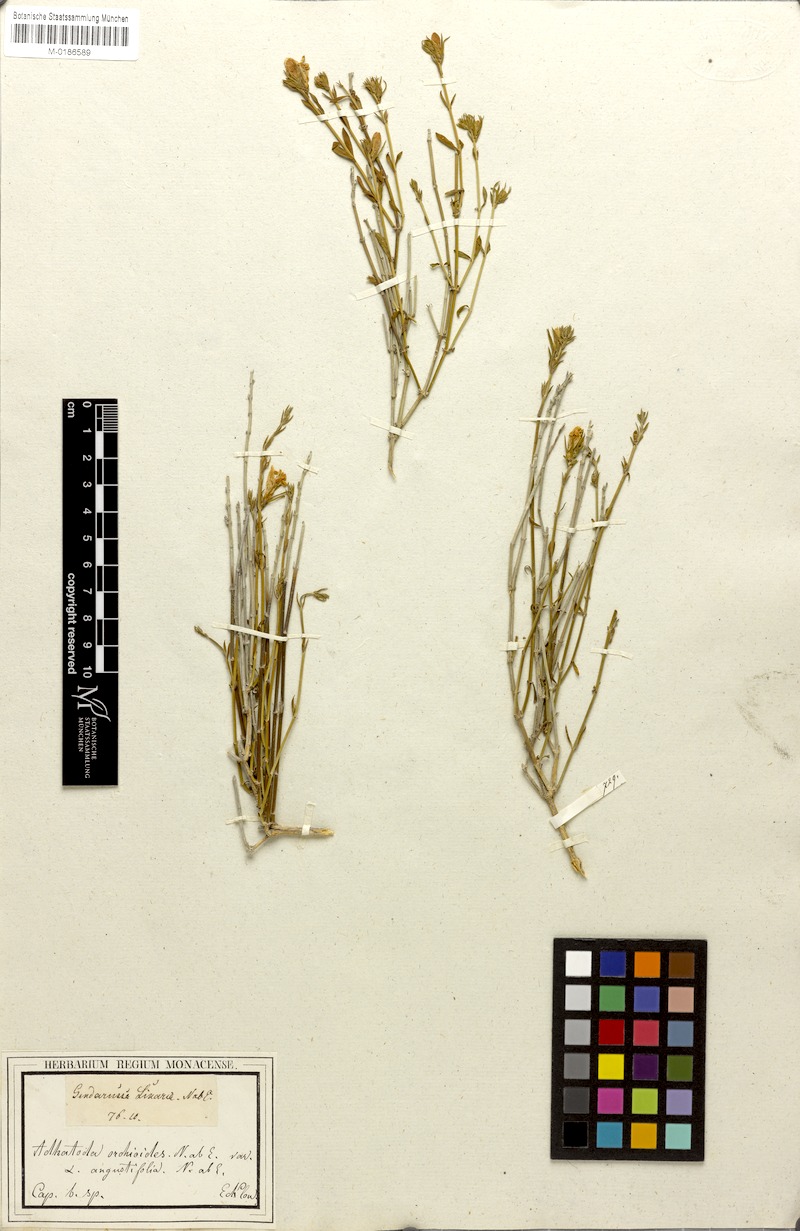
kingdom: Plantae
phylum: Tracheophyta
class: Magnoliopsida
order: Lamiales
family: Acanthaceae
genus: Justicia
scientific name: Justicia
